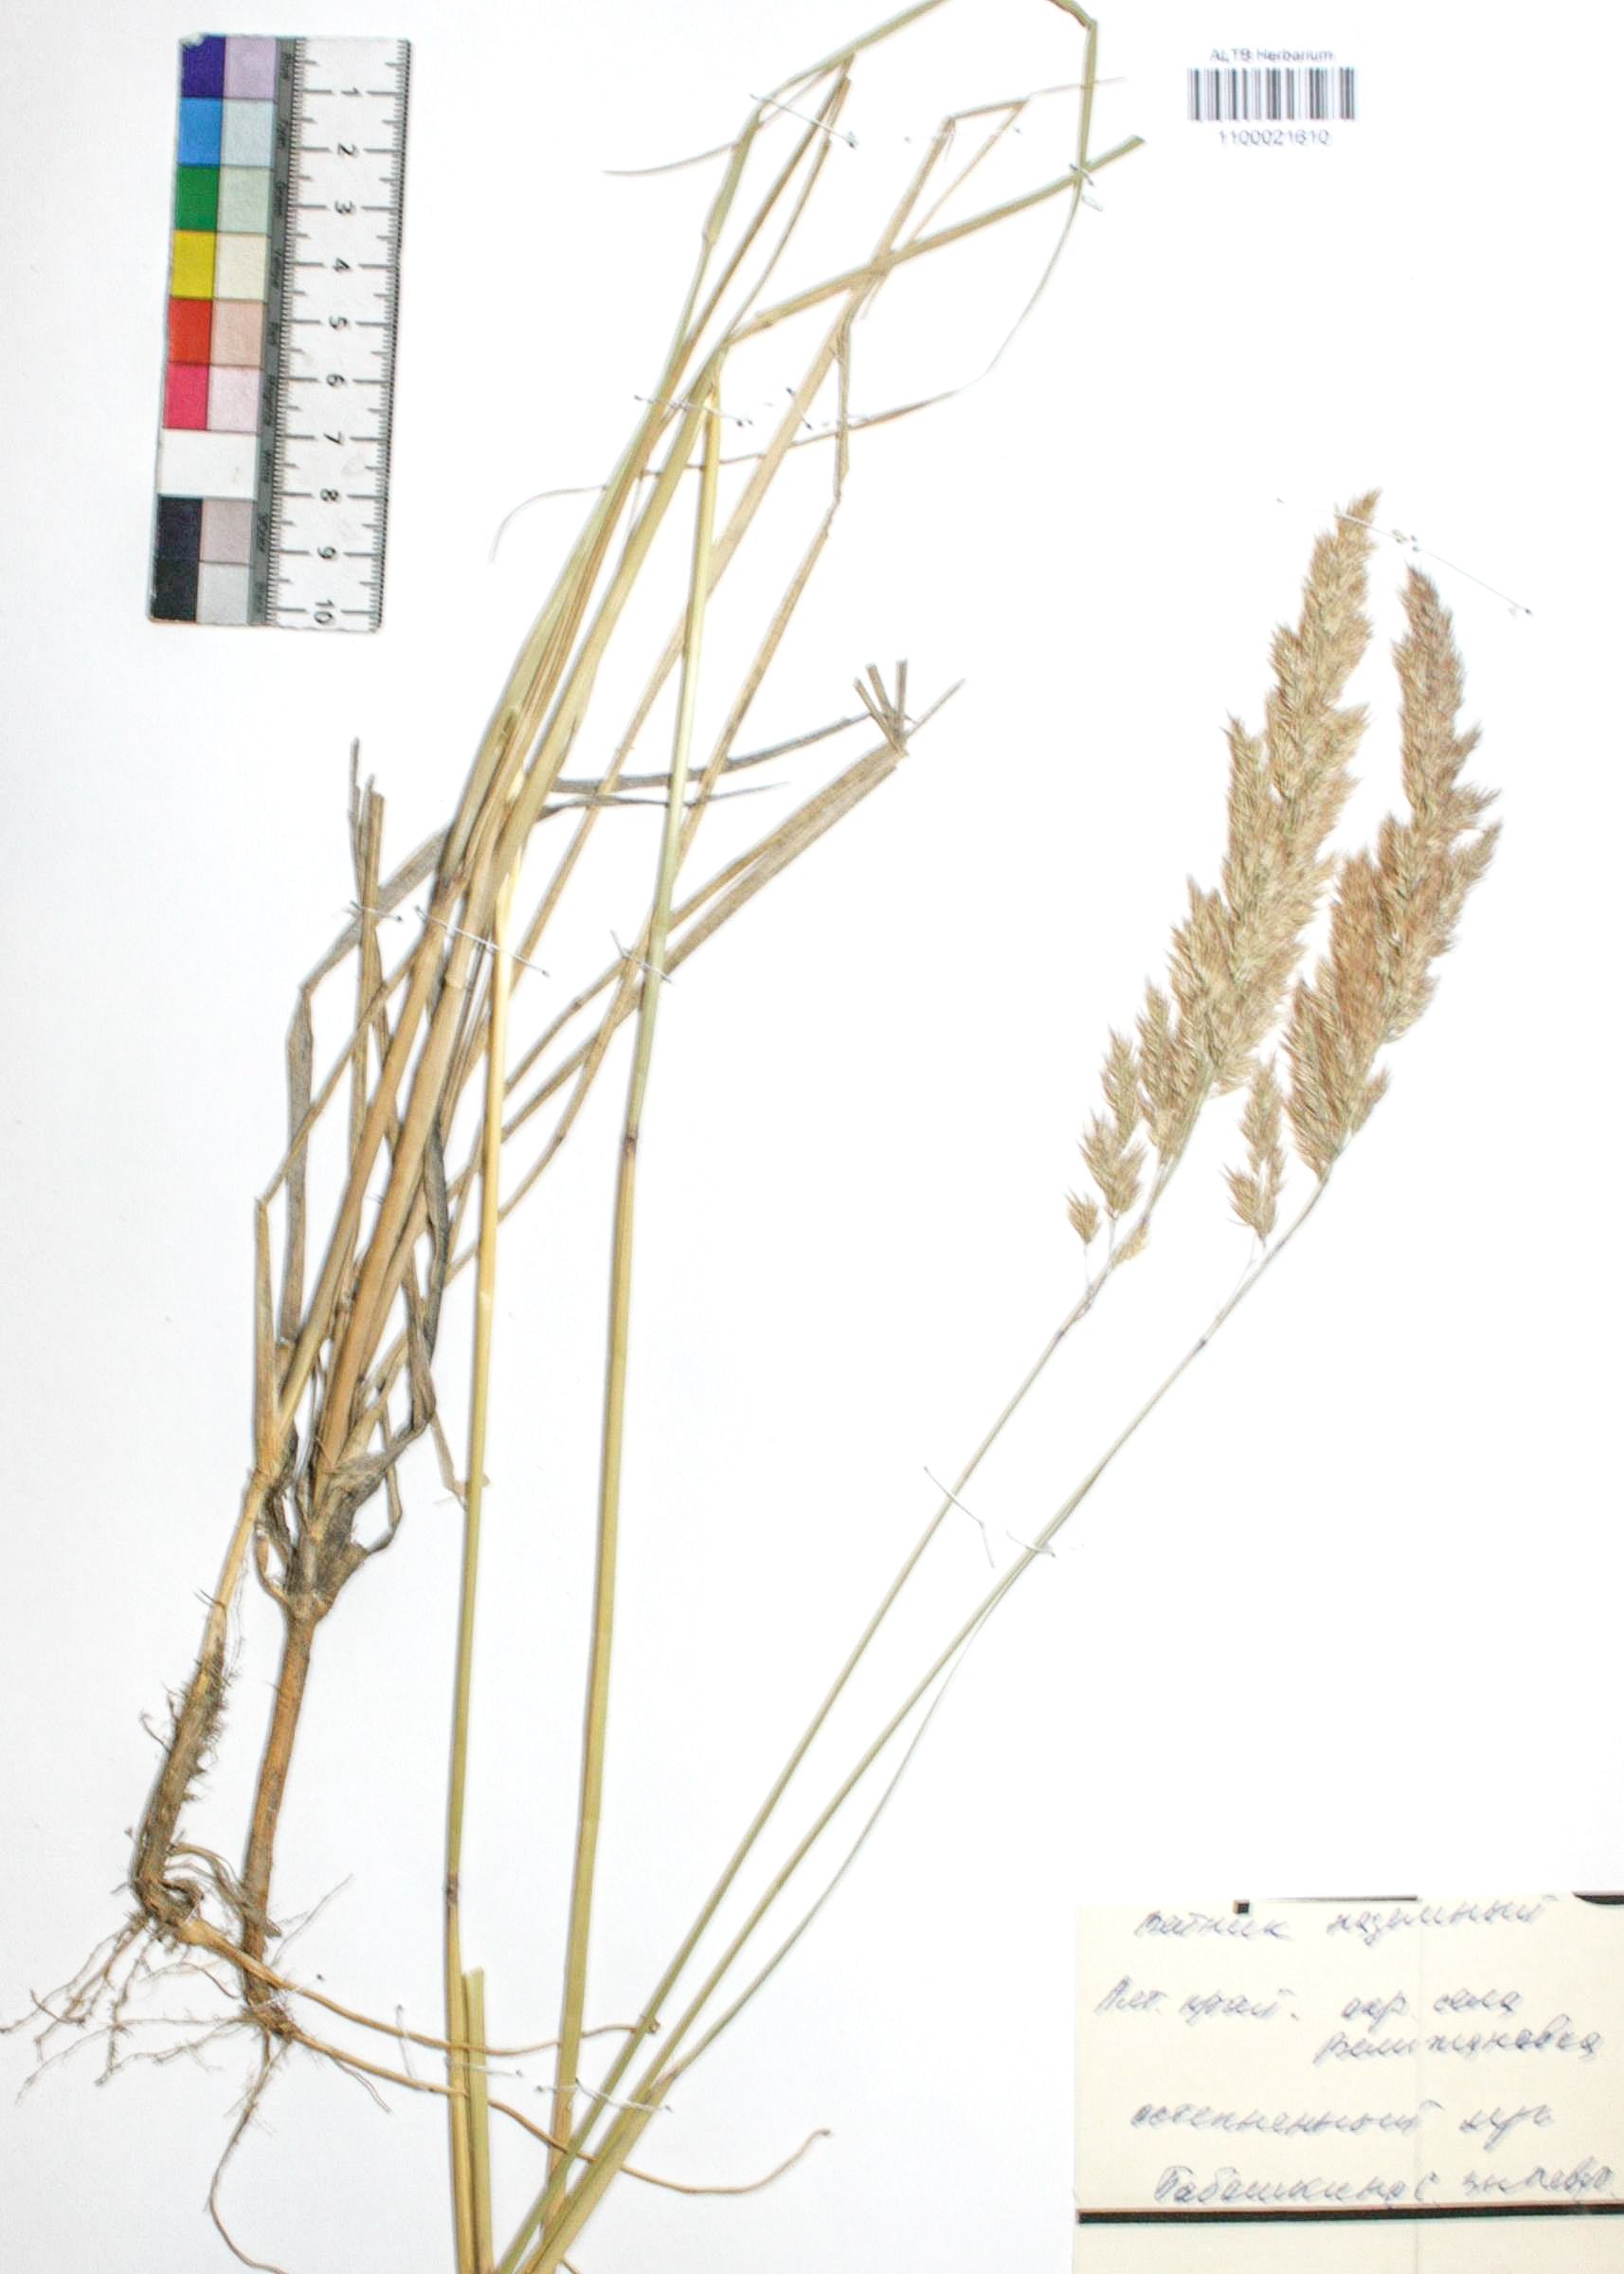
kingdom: Plantae
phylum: Tracheophyta
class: Liliopsida
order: Poales
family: Poaceae
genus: Calamagrostis
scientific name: Calamagrostis epigejos
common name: Wood small-reed
